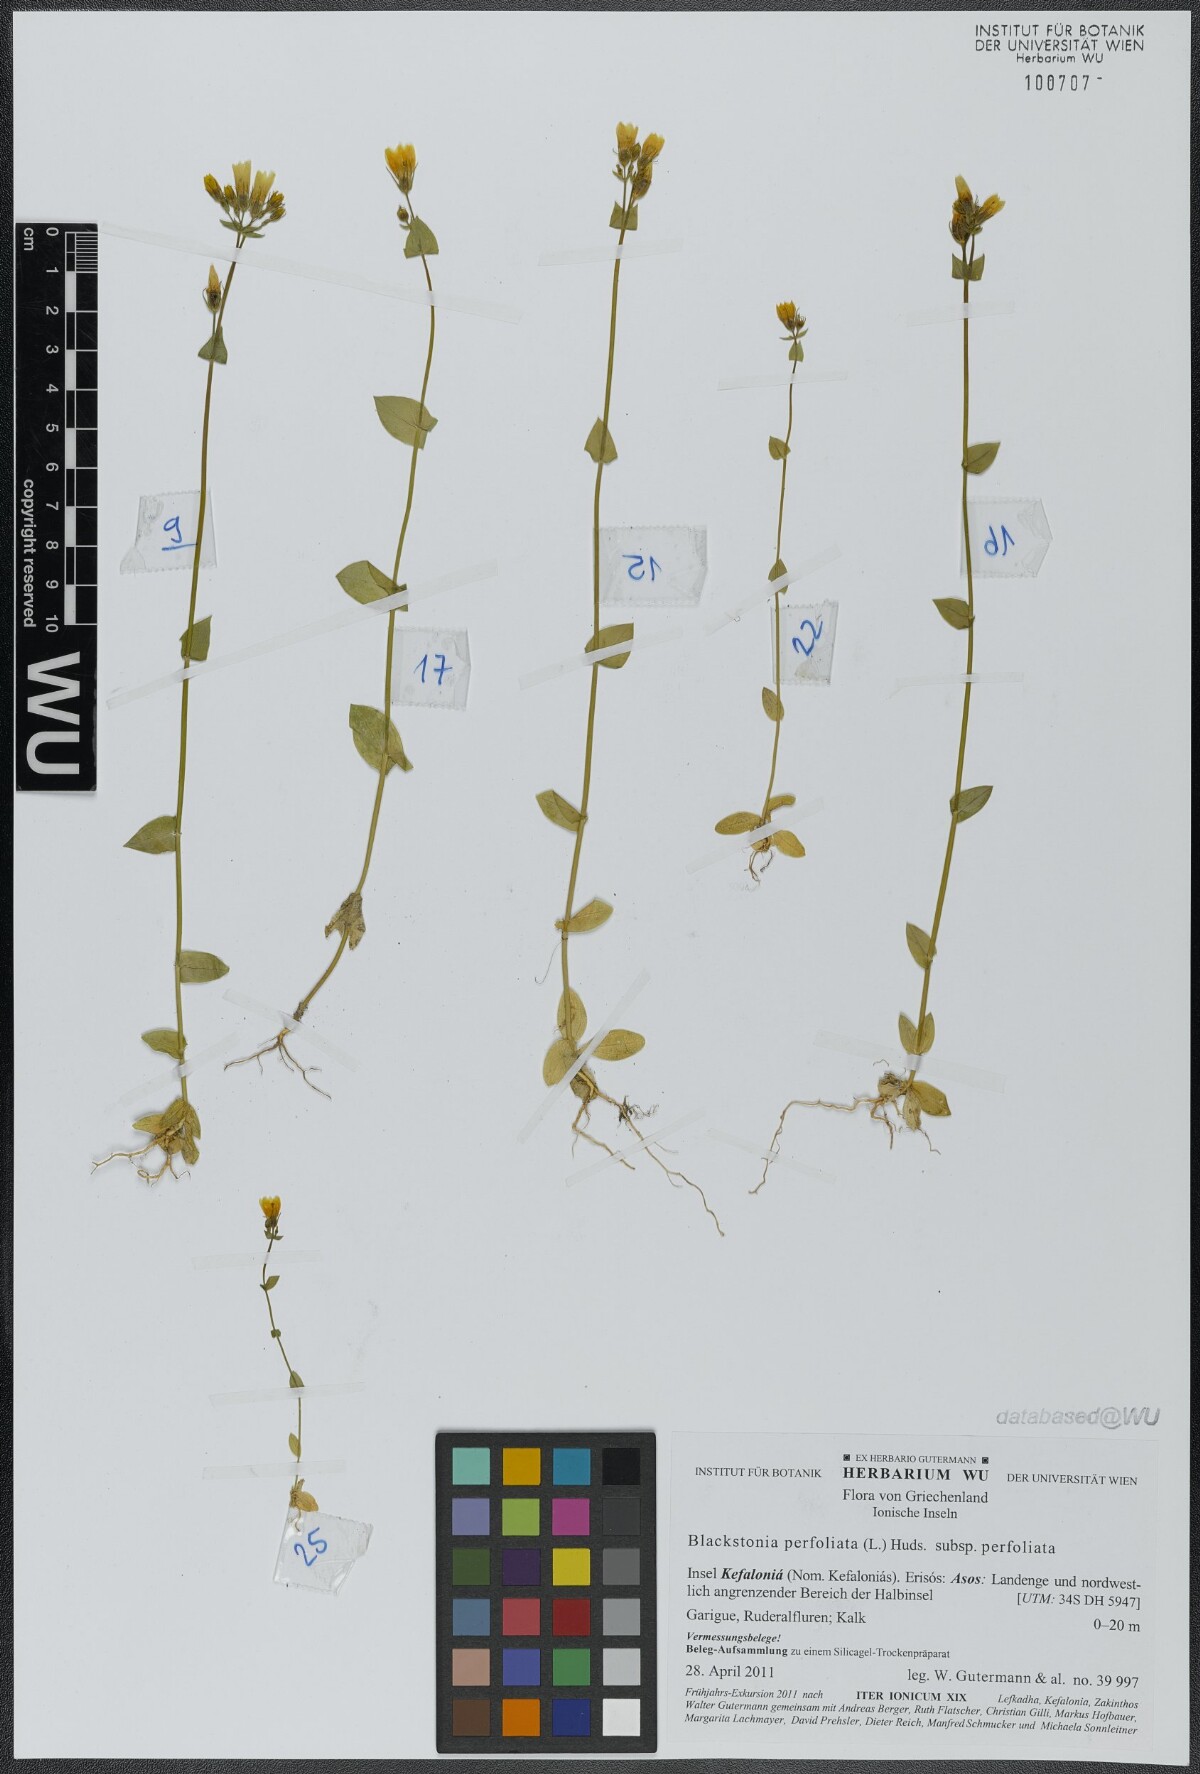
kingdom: Plantae
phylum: Tracheophyta
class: Magnoliopsida
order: Gentianales
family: Gentianaceae
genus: Blackstonia
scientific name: Blackstonia perfoliata
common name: Yellow-wort
